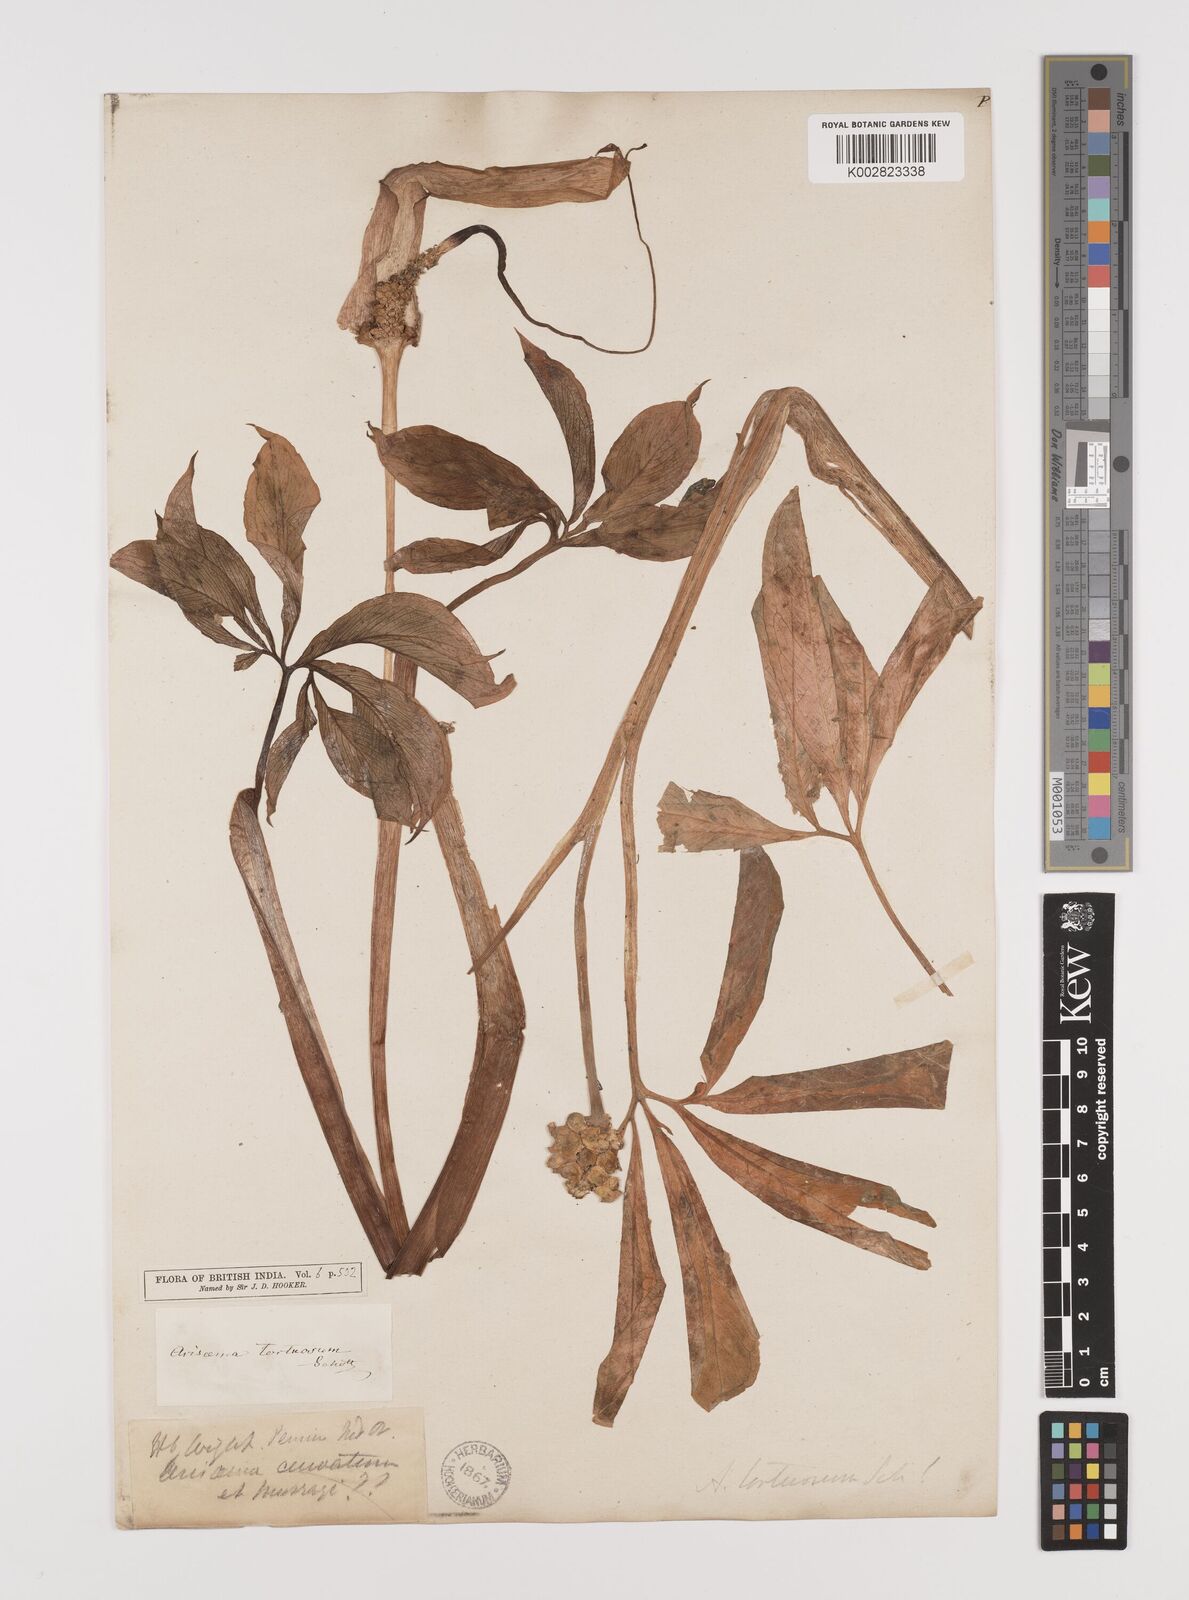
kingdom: Plantae
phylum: Tracheophyta
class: Liliopsida
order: Alismatales
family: Araceae
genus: Arisaema
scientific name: Arisaema tortuosum
